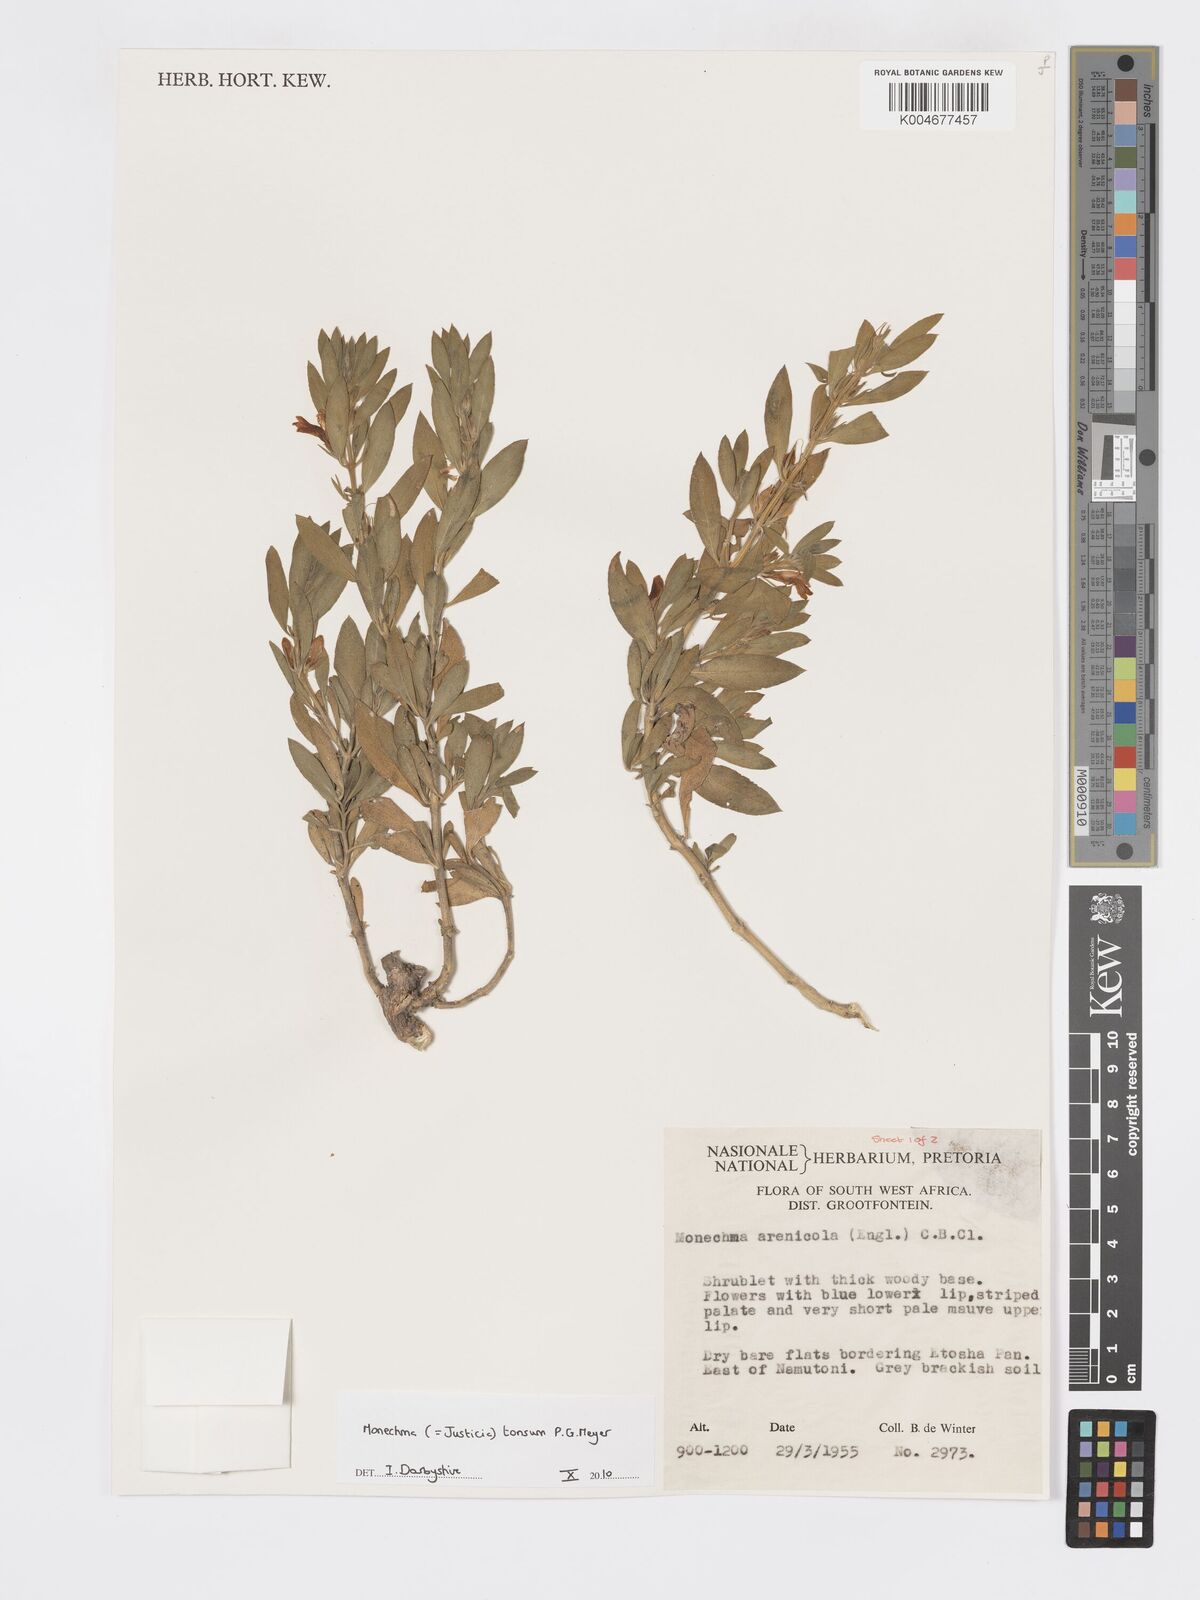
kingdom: Plantae
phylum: Tracheophyta
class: Magnoliopsida
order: Lamiales
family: Acanthaceae
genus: Pogonospermum
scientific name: Pogonospermum
